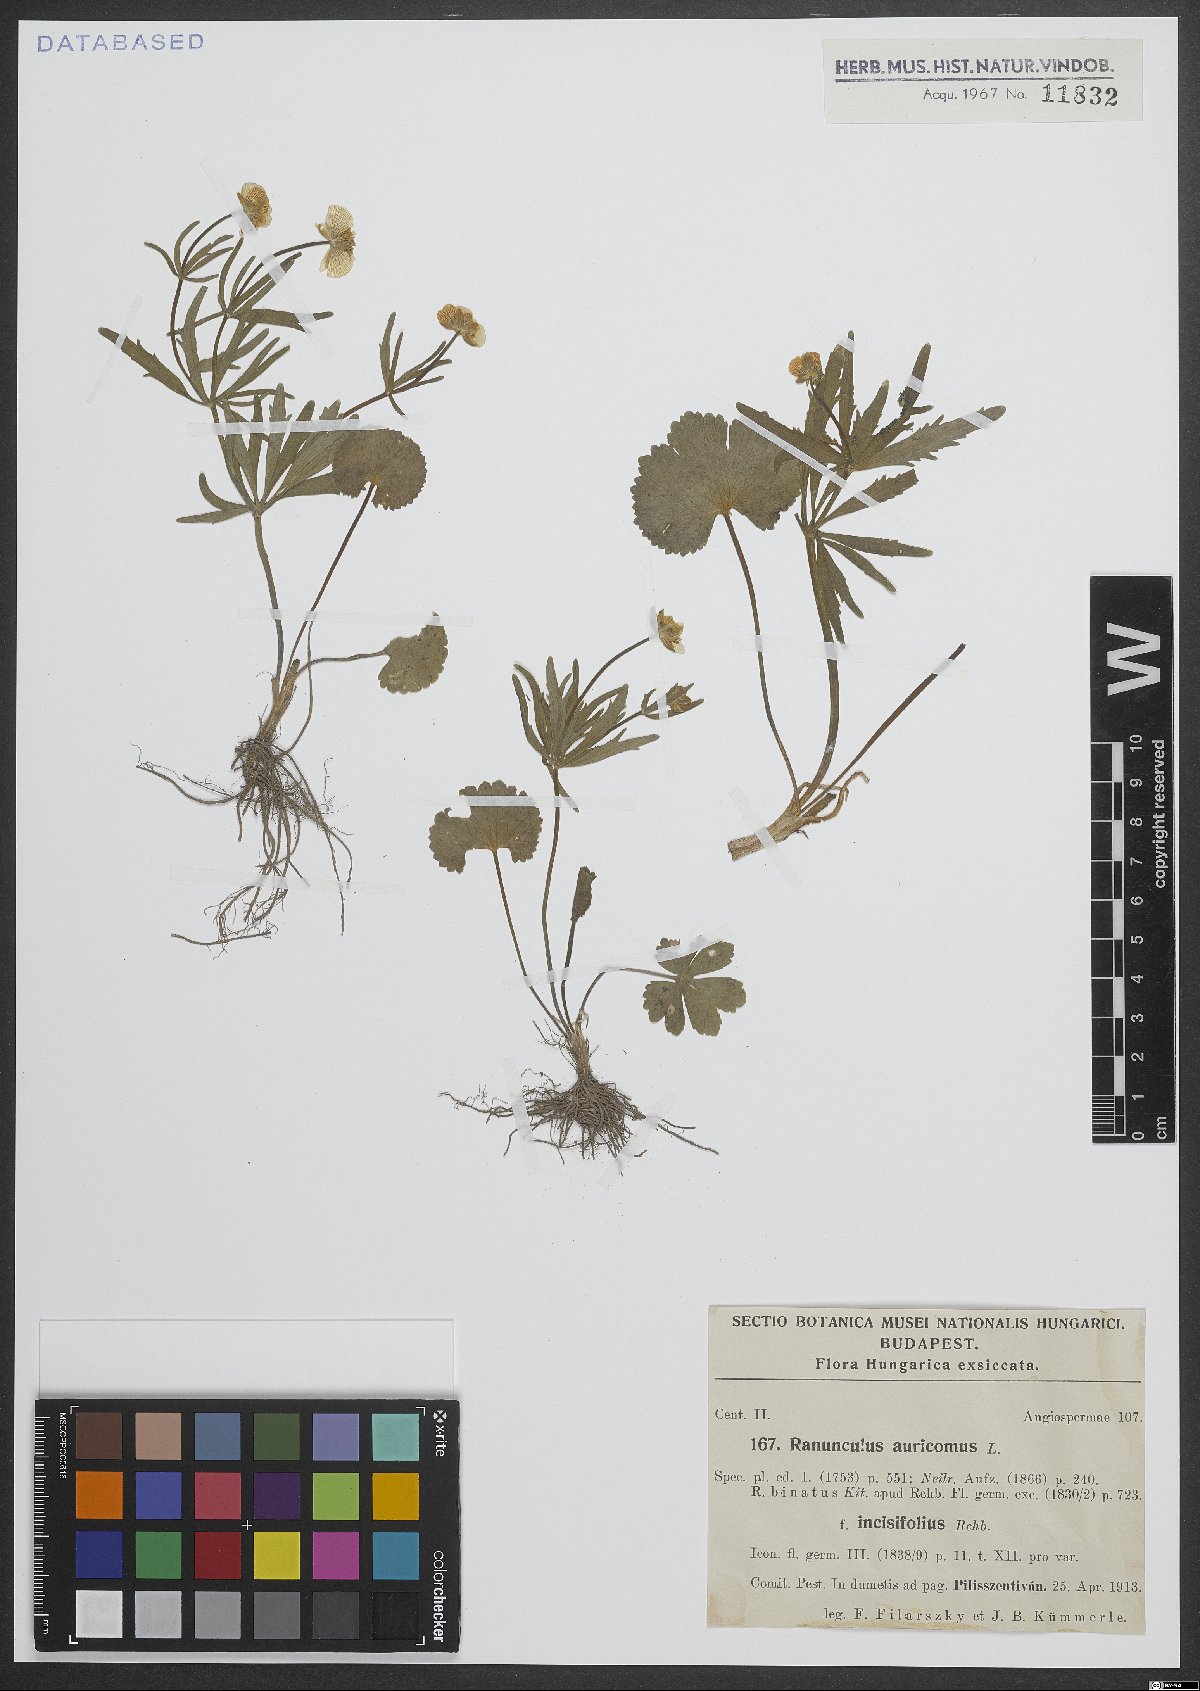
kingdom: Plantae
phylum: Tracheophyta
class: Magnoliopsida
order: Ranunculales
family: Ranunculaceae
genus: Ranunculus
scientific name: Ranunculus auricomus
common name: Goldilocks buttercup
